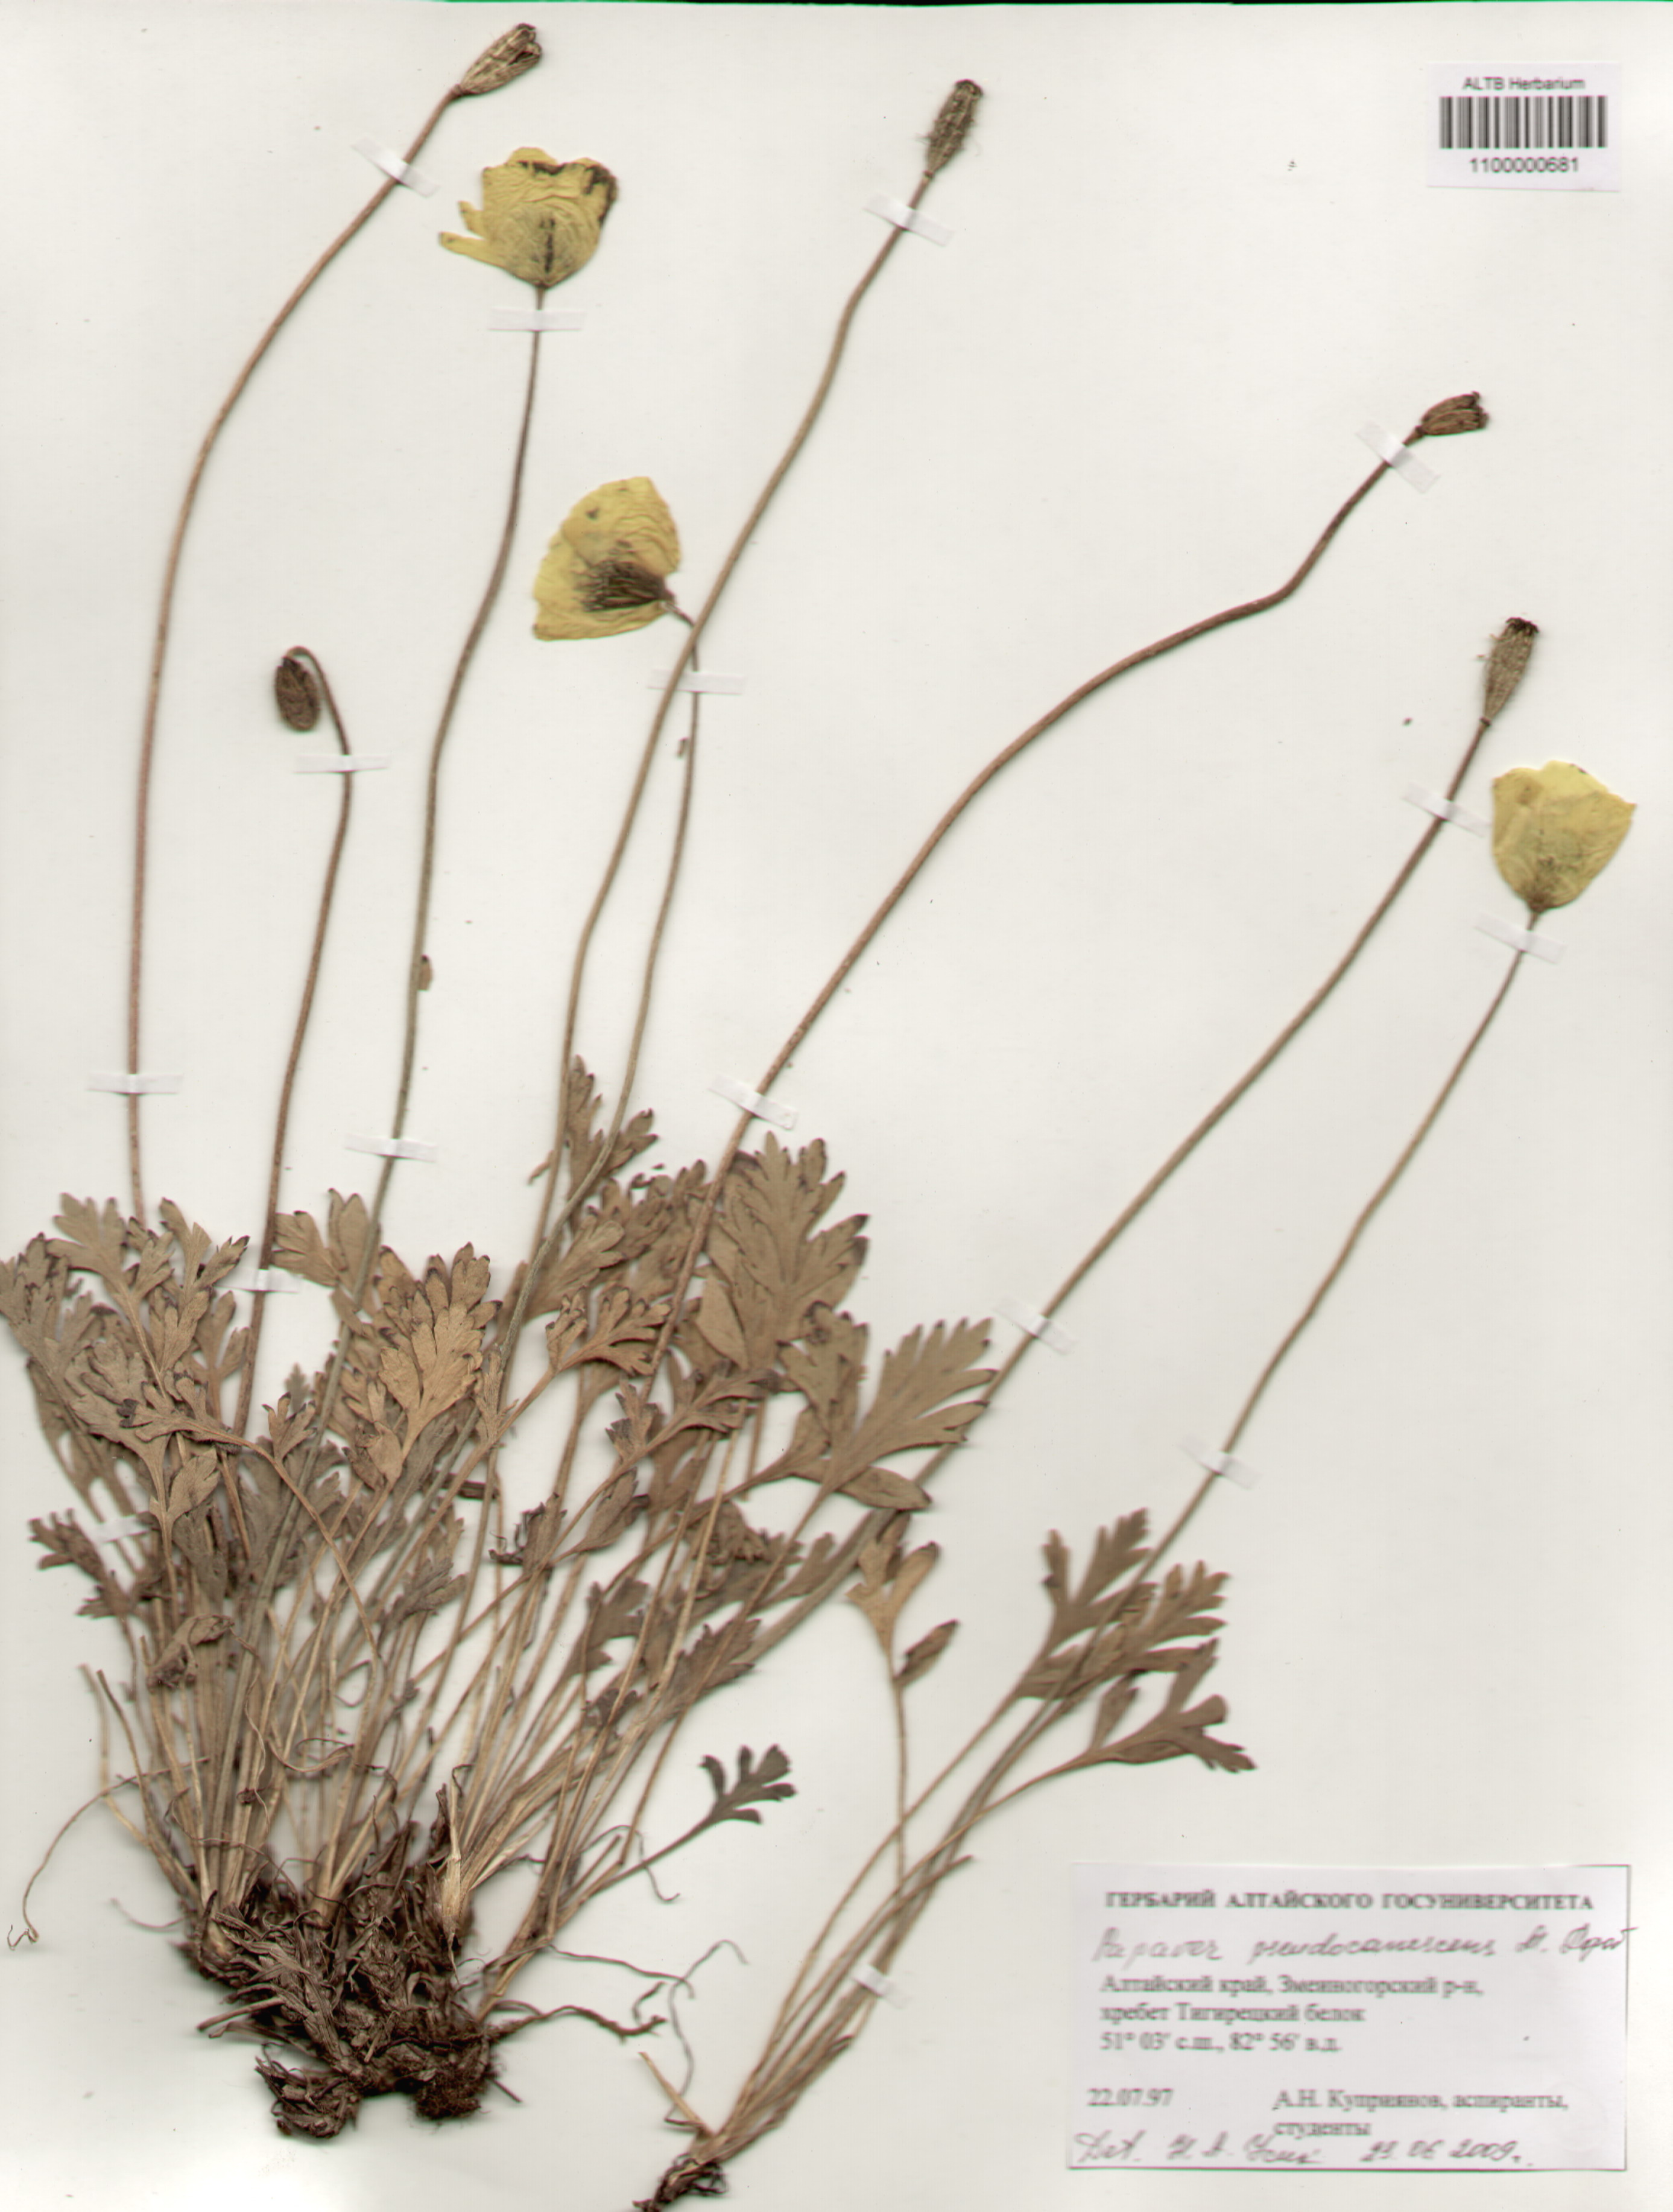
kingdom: Plantae
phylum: Tracheophyta
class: Magnoliopsida
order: Ranunculales
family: Papaveraceae
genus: Papaver
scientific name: Papaver canescens
